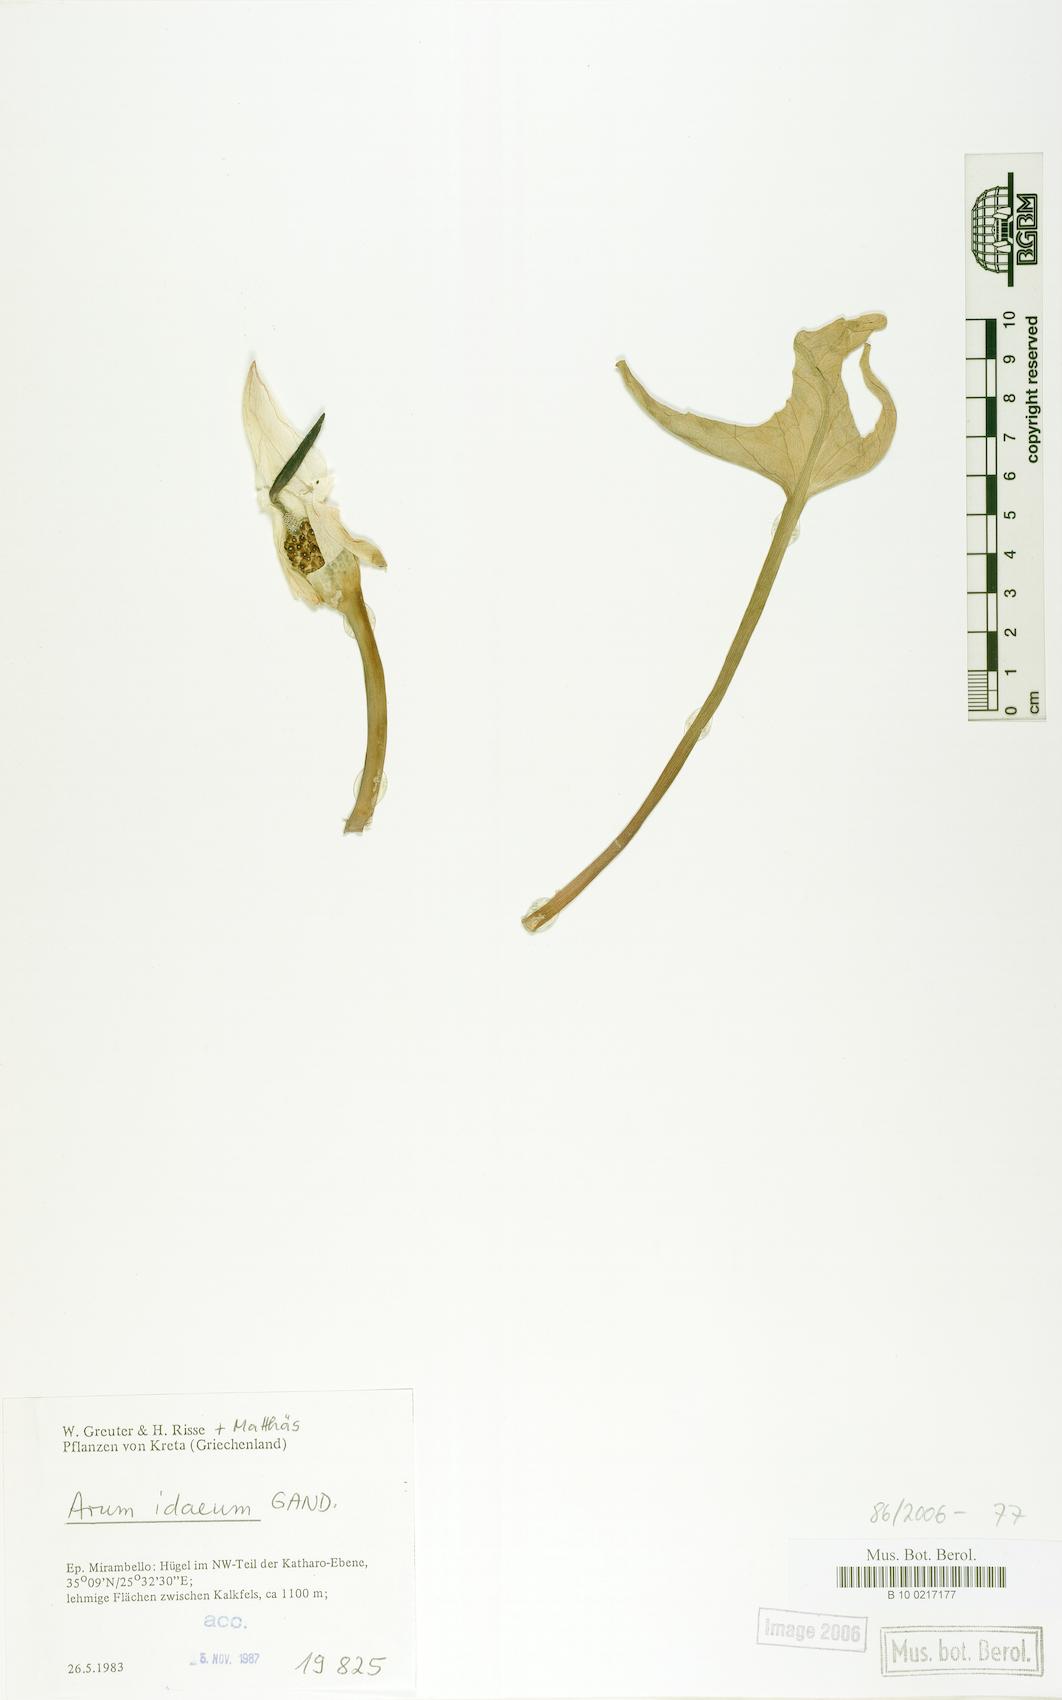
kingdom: Plantae
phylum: Tracheophyta
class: Liliopsida
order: Alismatales
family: Araceae
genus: Arum
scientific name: Arum idaeum
